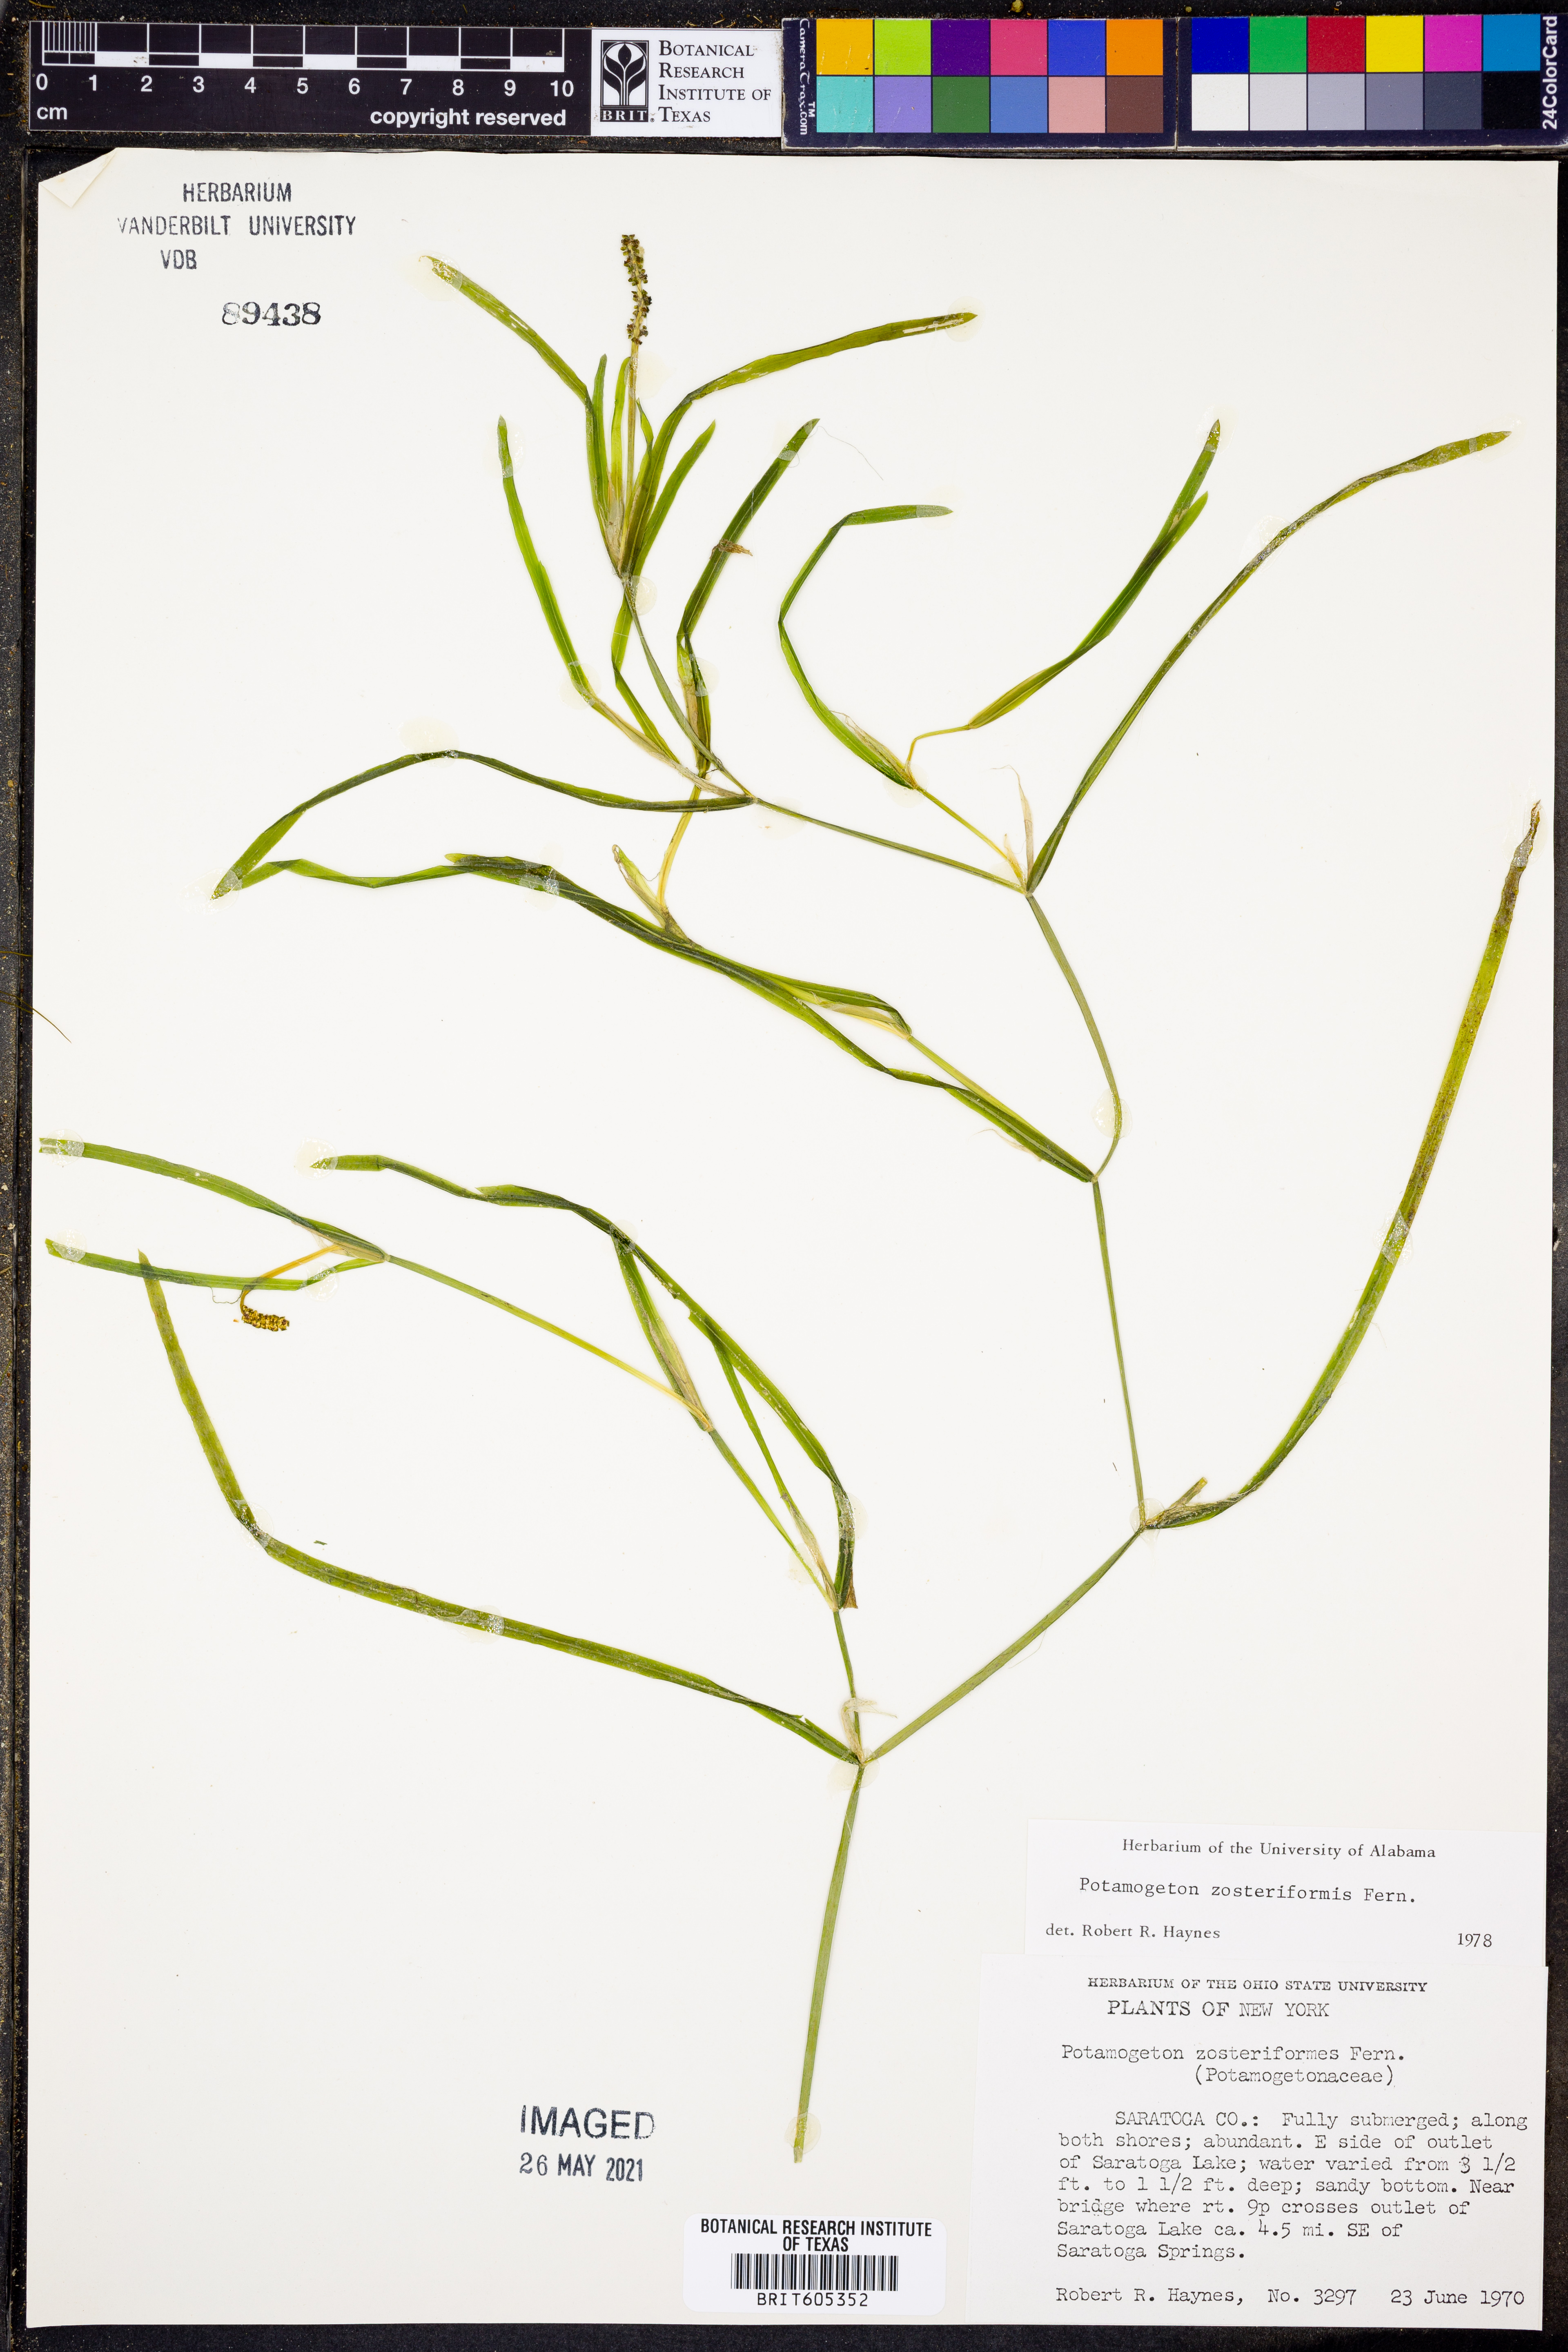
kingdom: Plantae
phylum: Tracheophyta
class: Liliopsida
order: Alismatales
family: Potamogetonaceae
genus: Potamogeton
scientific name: Potamogeton zosteriformis
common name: Eelgrass pondweed
